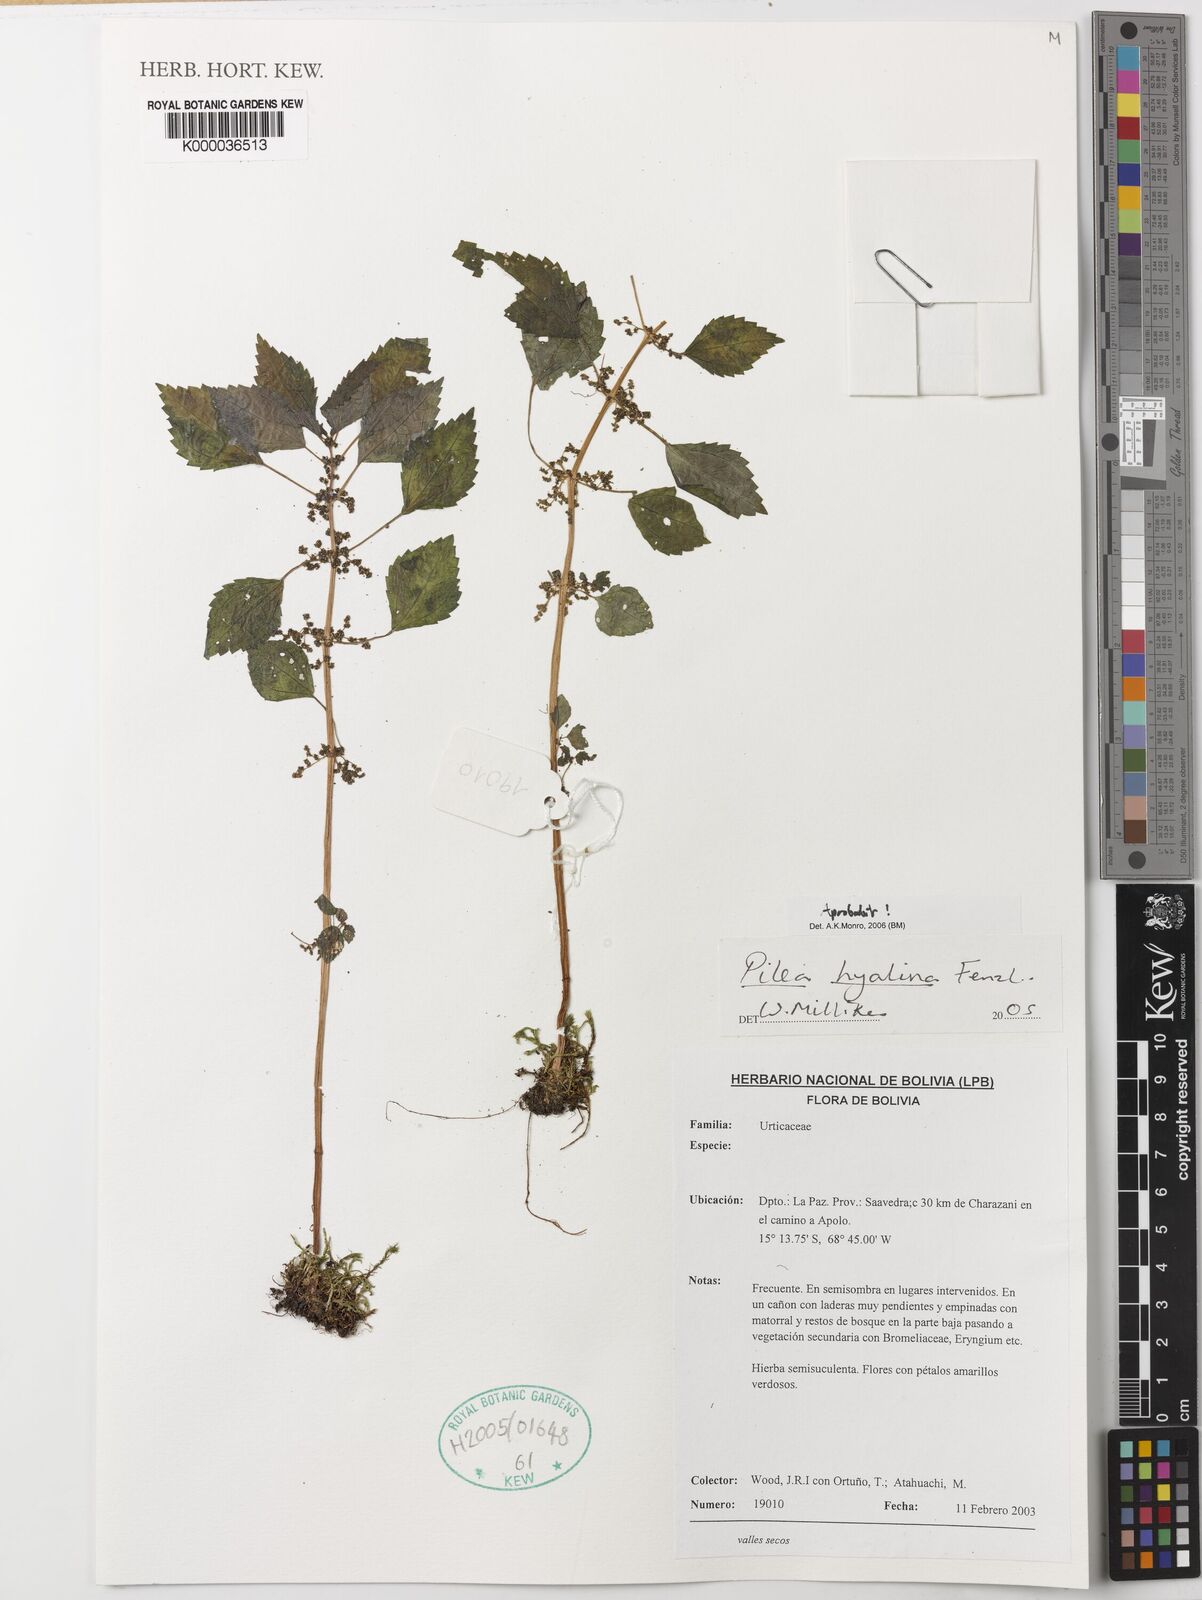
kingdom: Plantae
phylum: Tracheophyta
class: Magnoliopsida
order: Rosales
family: Urticaceae
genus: Pilea
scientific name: Pilea hyalina
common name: Virdrillo
